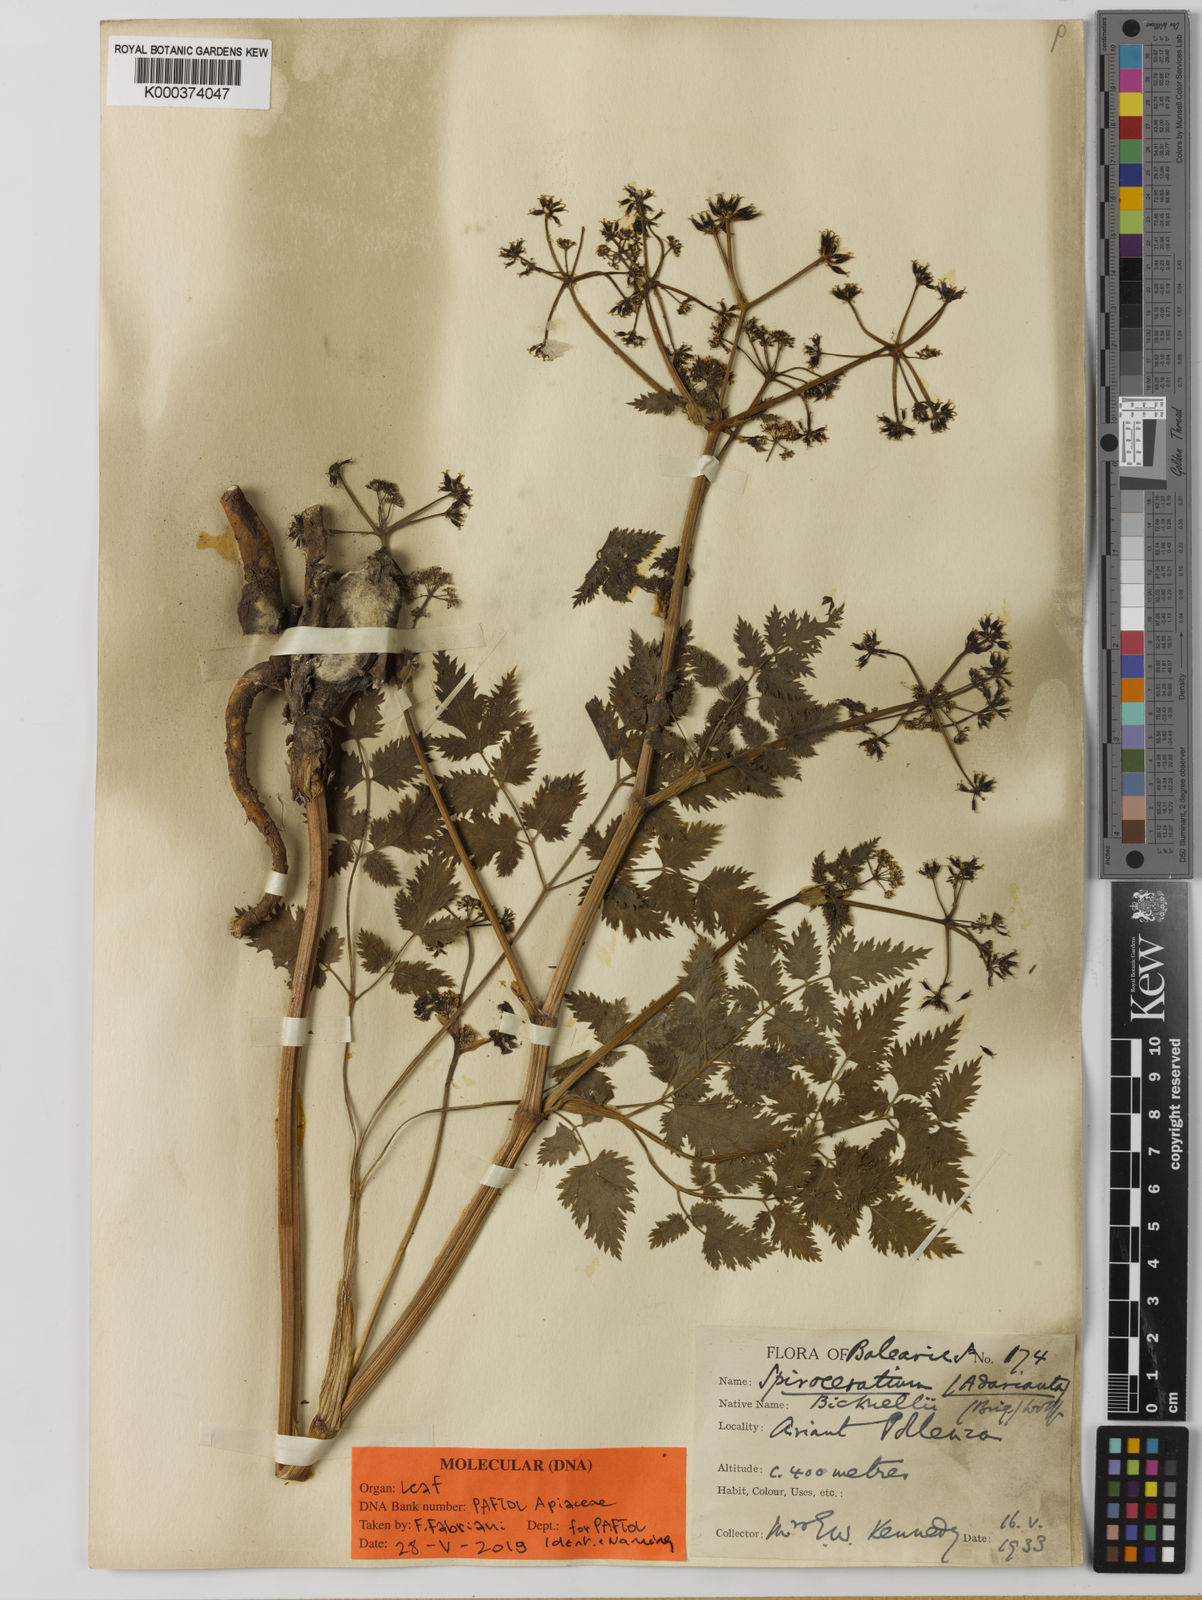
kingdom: Plantae
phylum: Tracheophyta
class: Magnoliopsida
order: Apiales
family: Apiaceae
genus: Spiroceratium
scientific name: Spiroceratium
